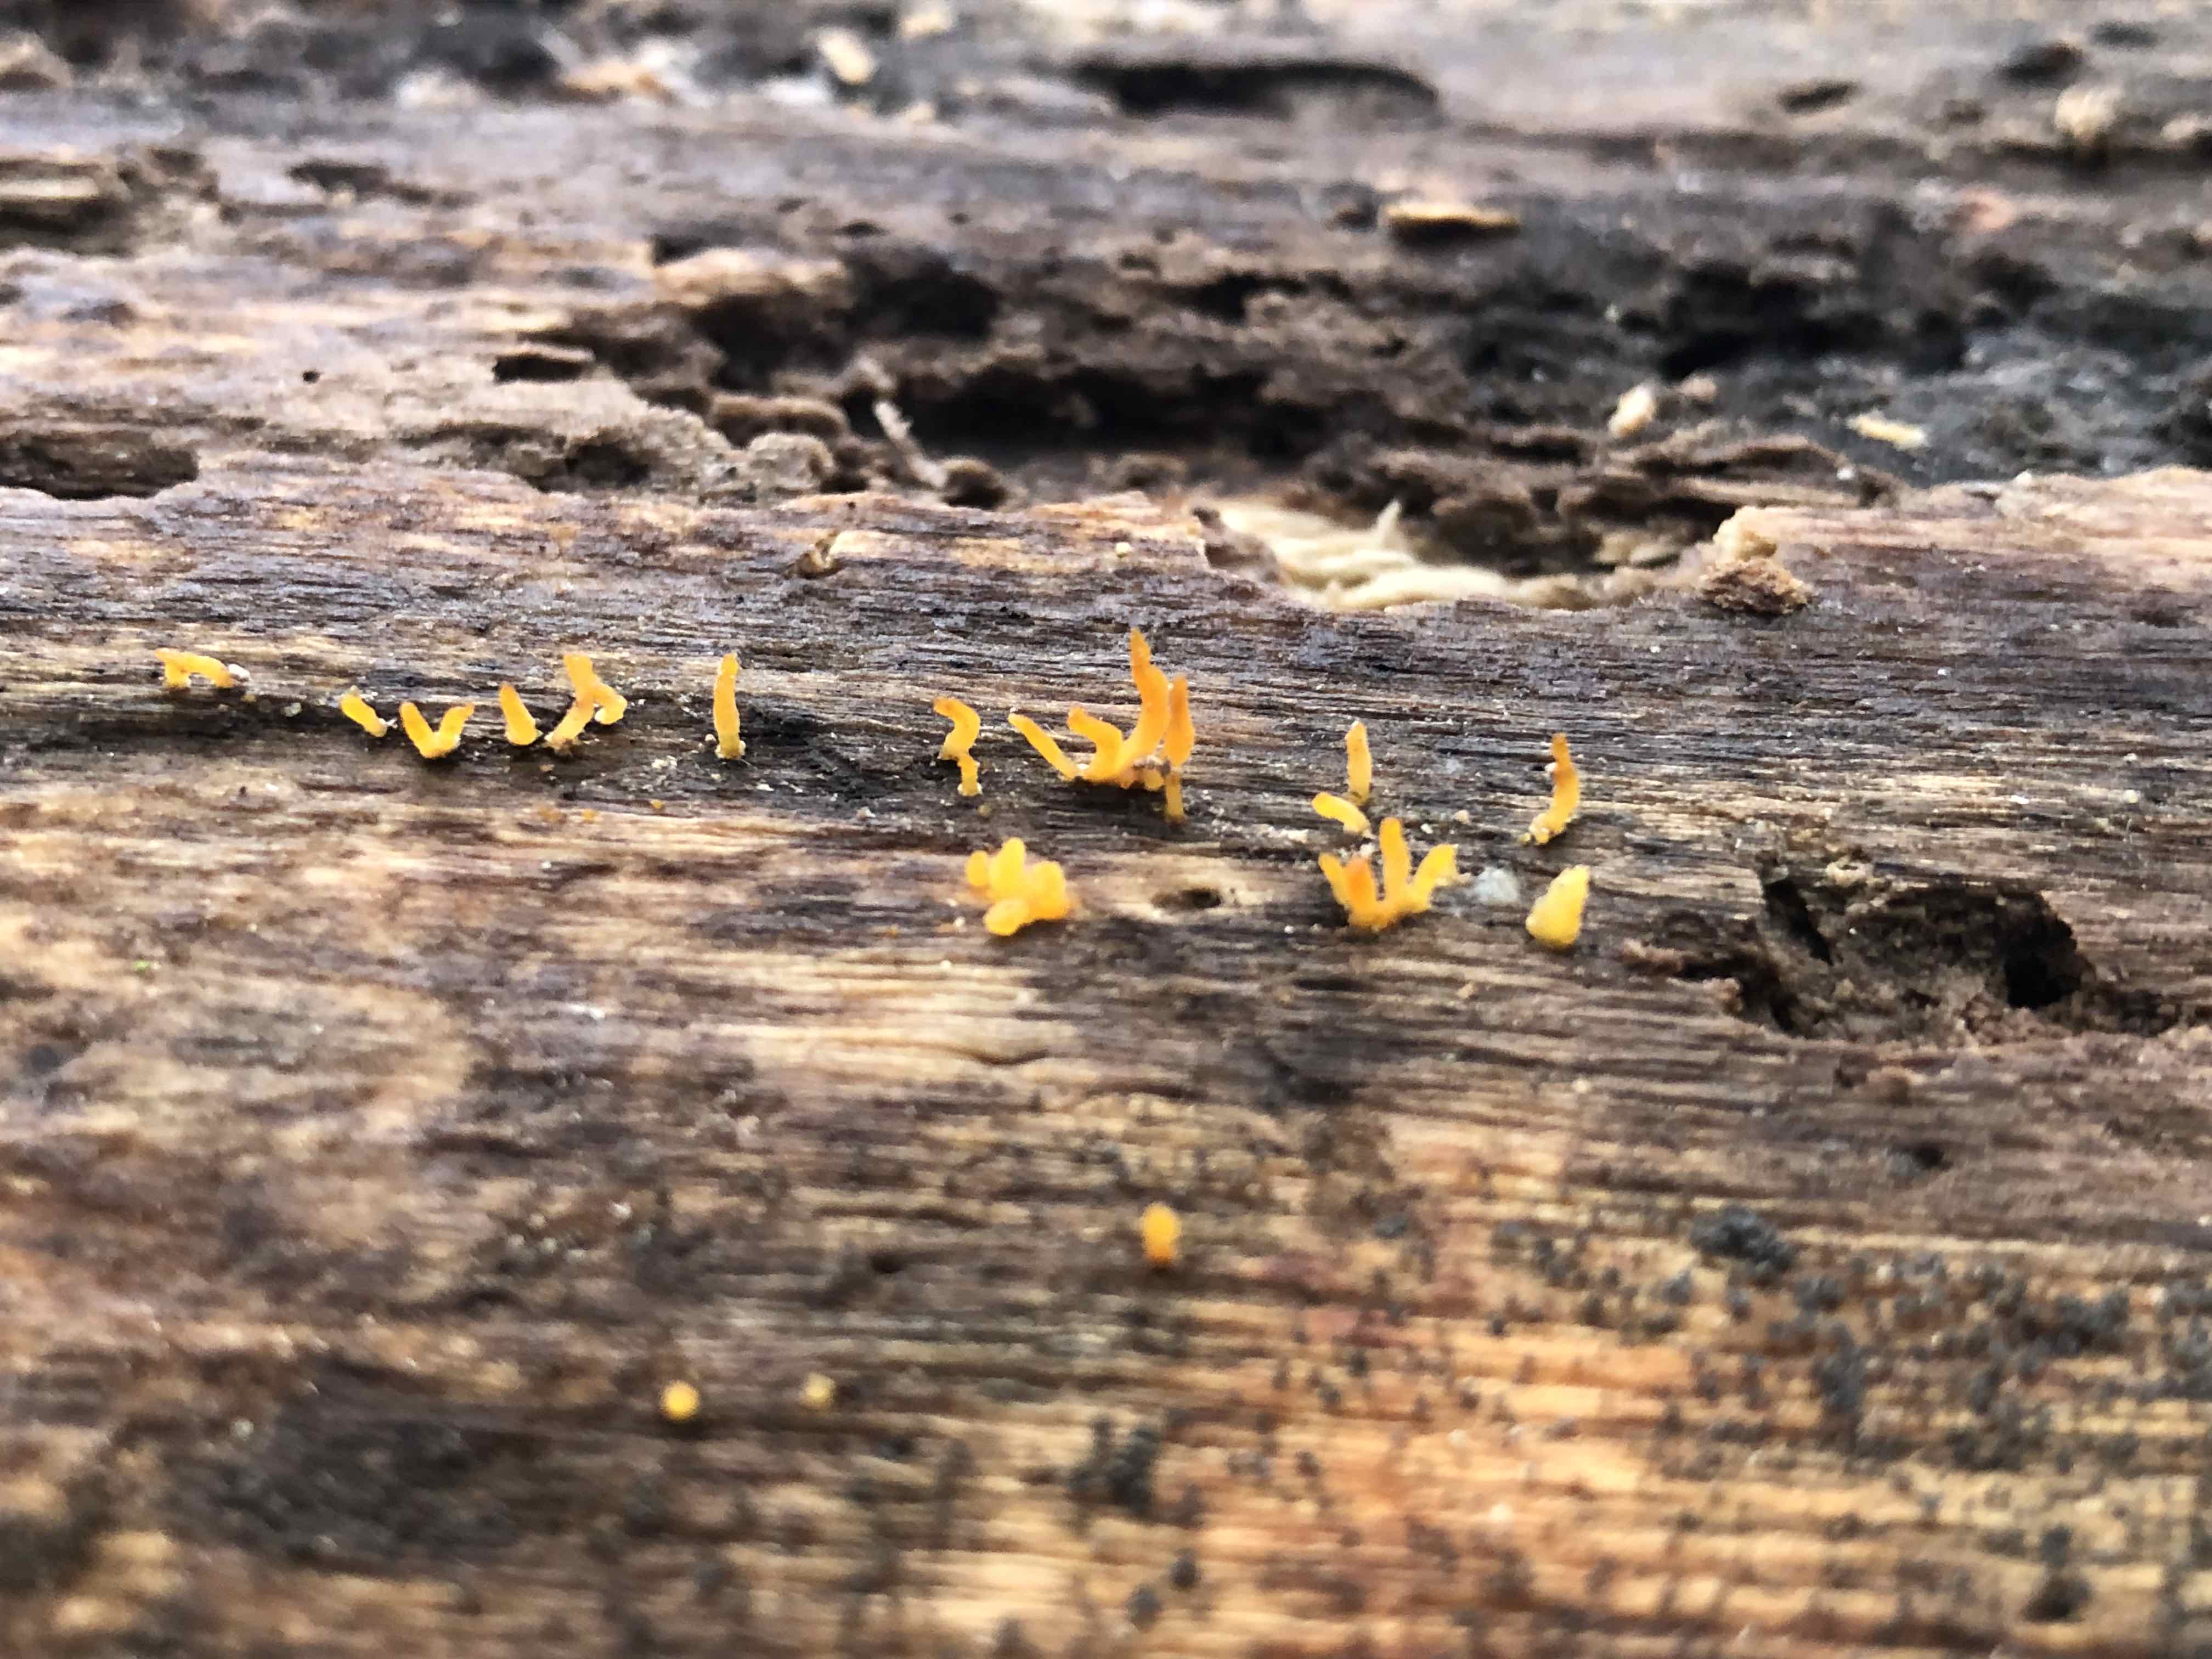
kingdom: Fungi
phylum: Basidiomycota
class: Dacrymycetes
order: Dacrymycetales
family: Dacrymycetaceae
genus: Calocera
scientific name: Calocera cornea
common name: liden guldgaffel
